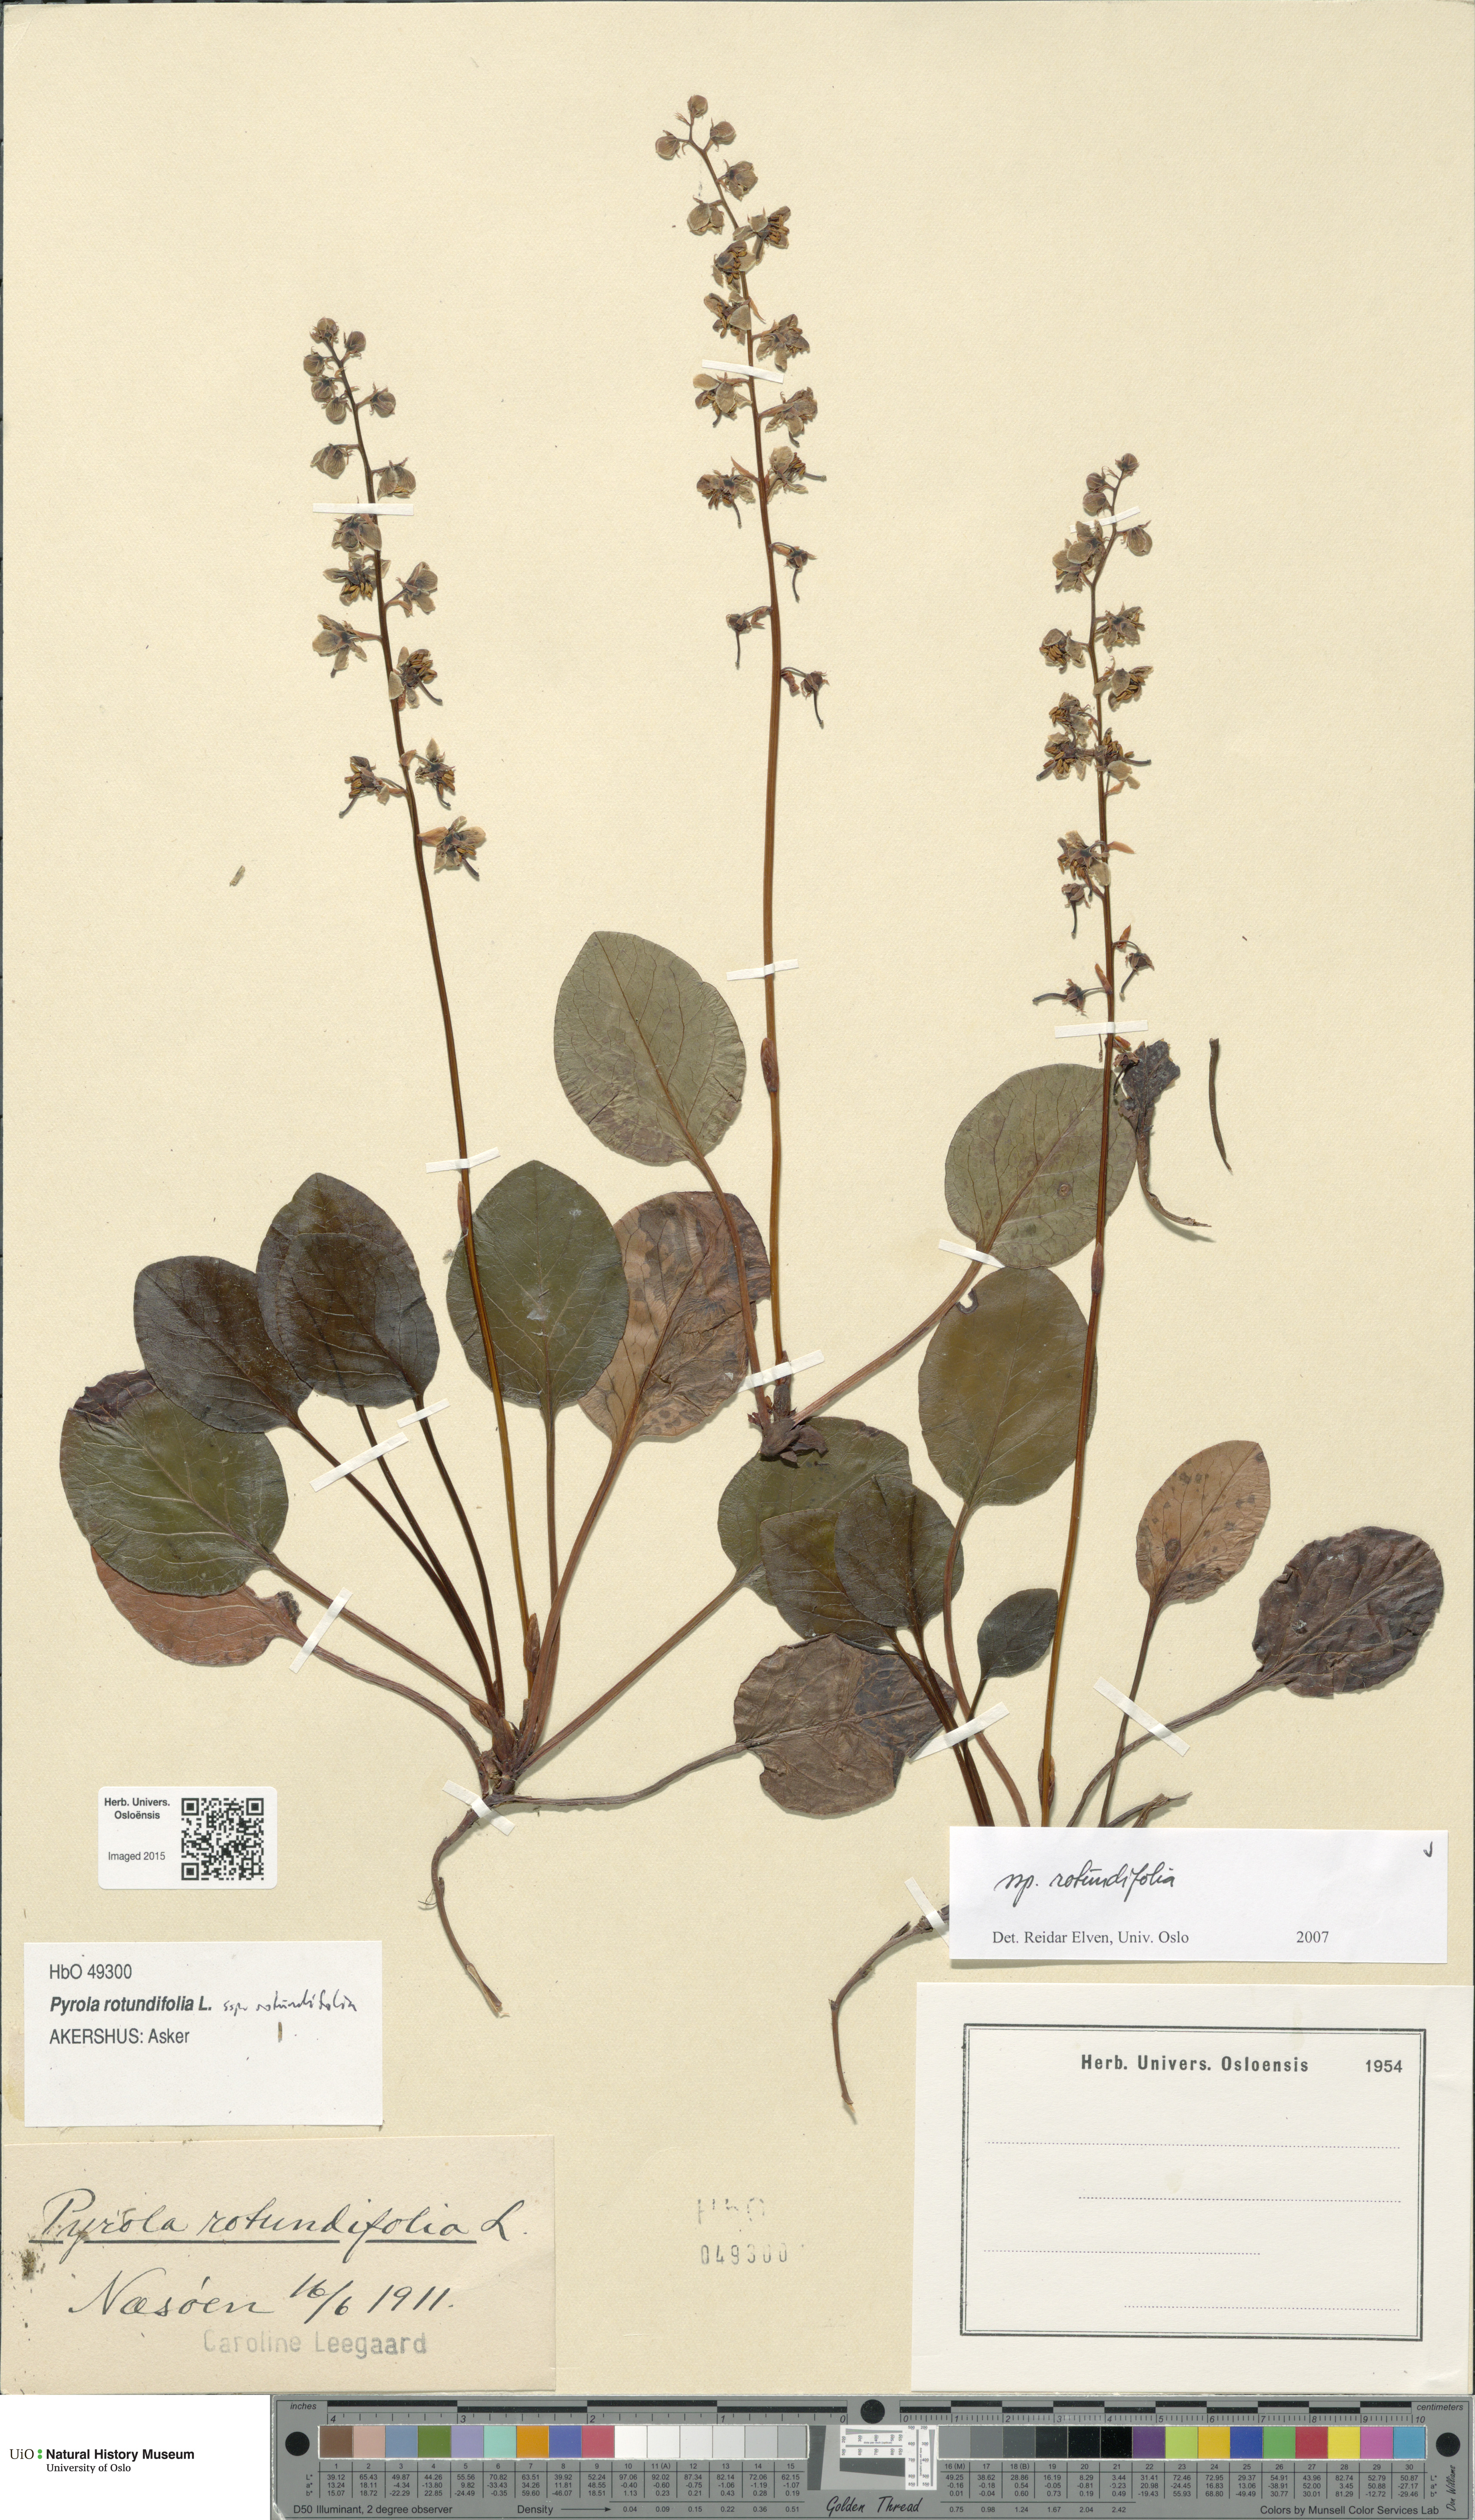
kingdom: Plantae
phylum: Tracheophyta
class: Magnoliopsida
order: Ericales
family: Ericaceae
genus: Pyrola
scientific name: Pyrola rotundifolia
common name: Round-leaved wintergreen
